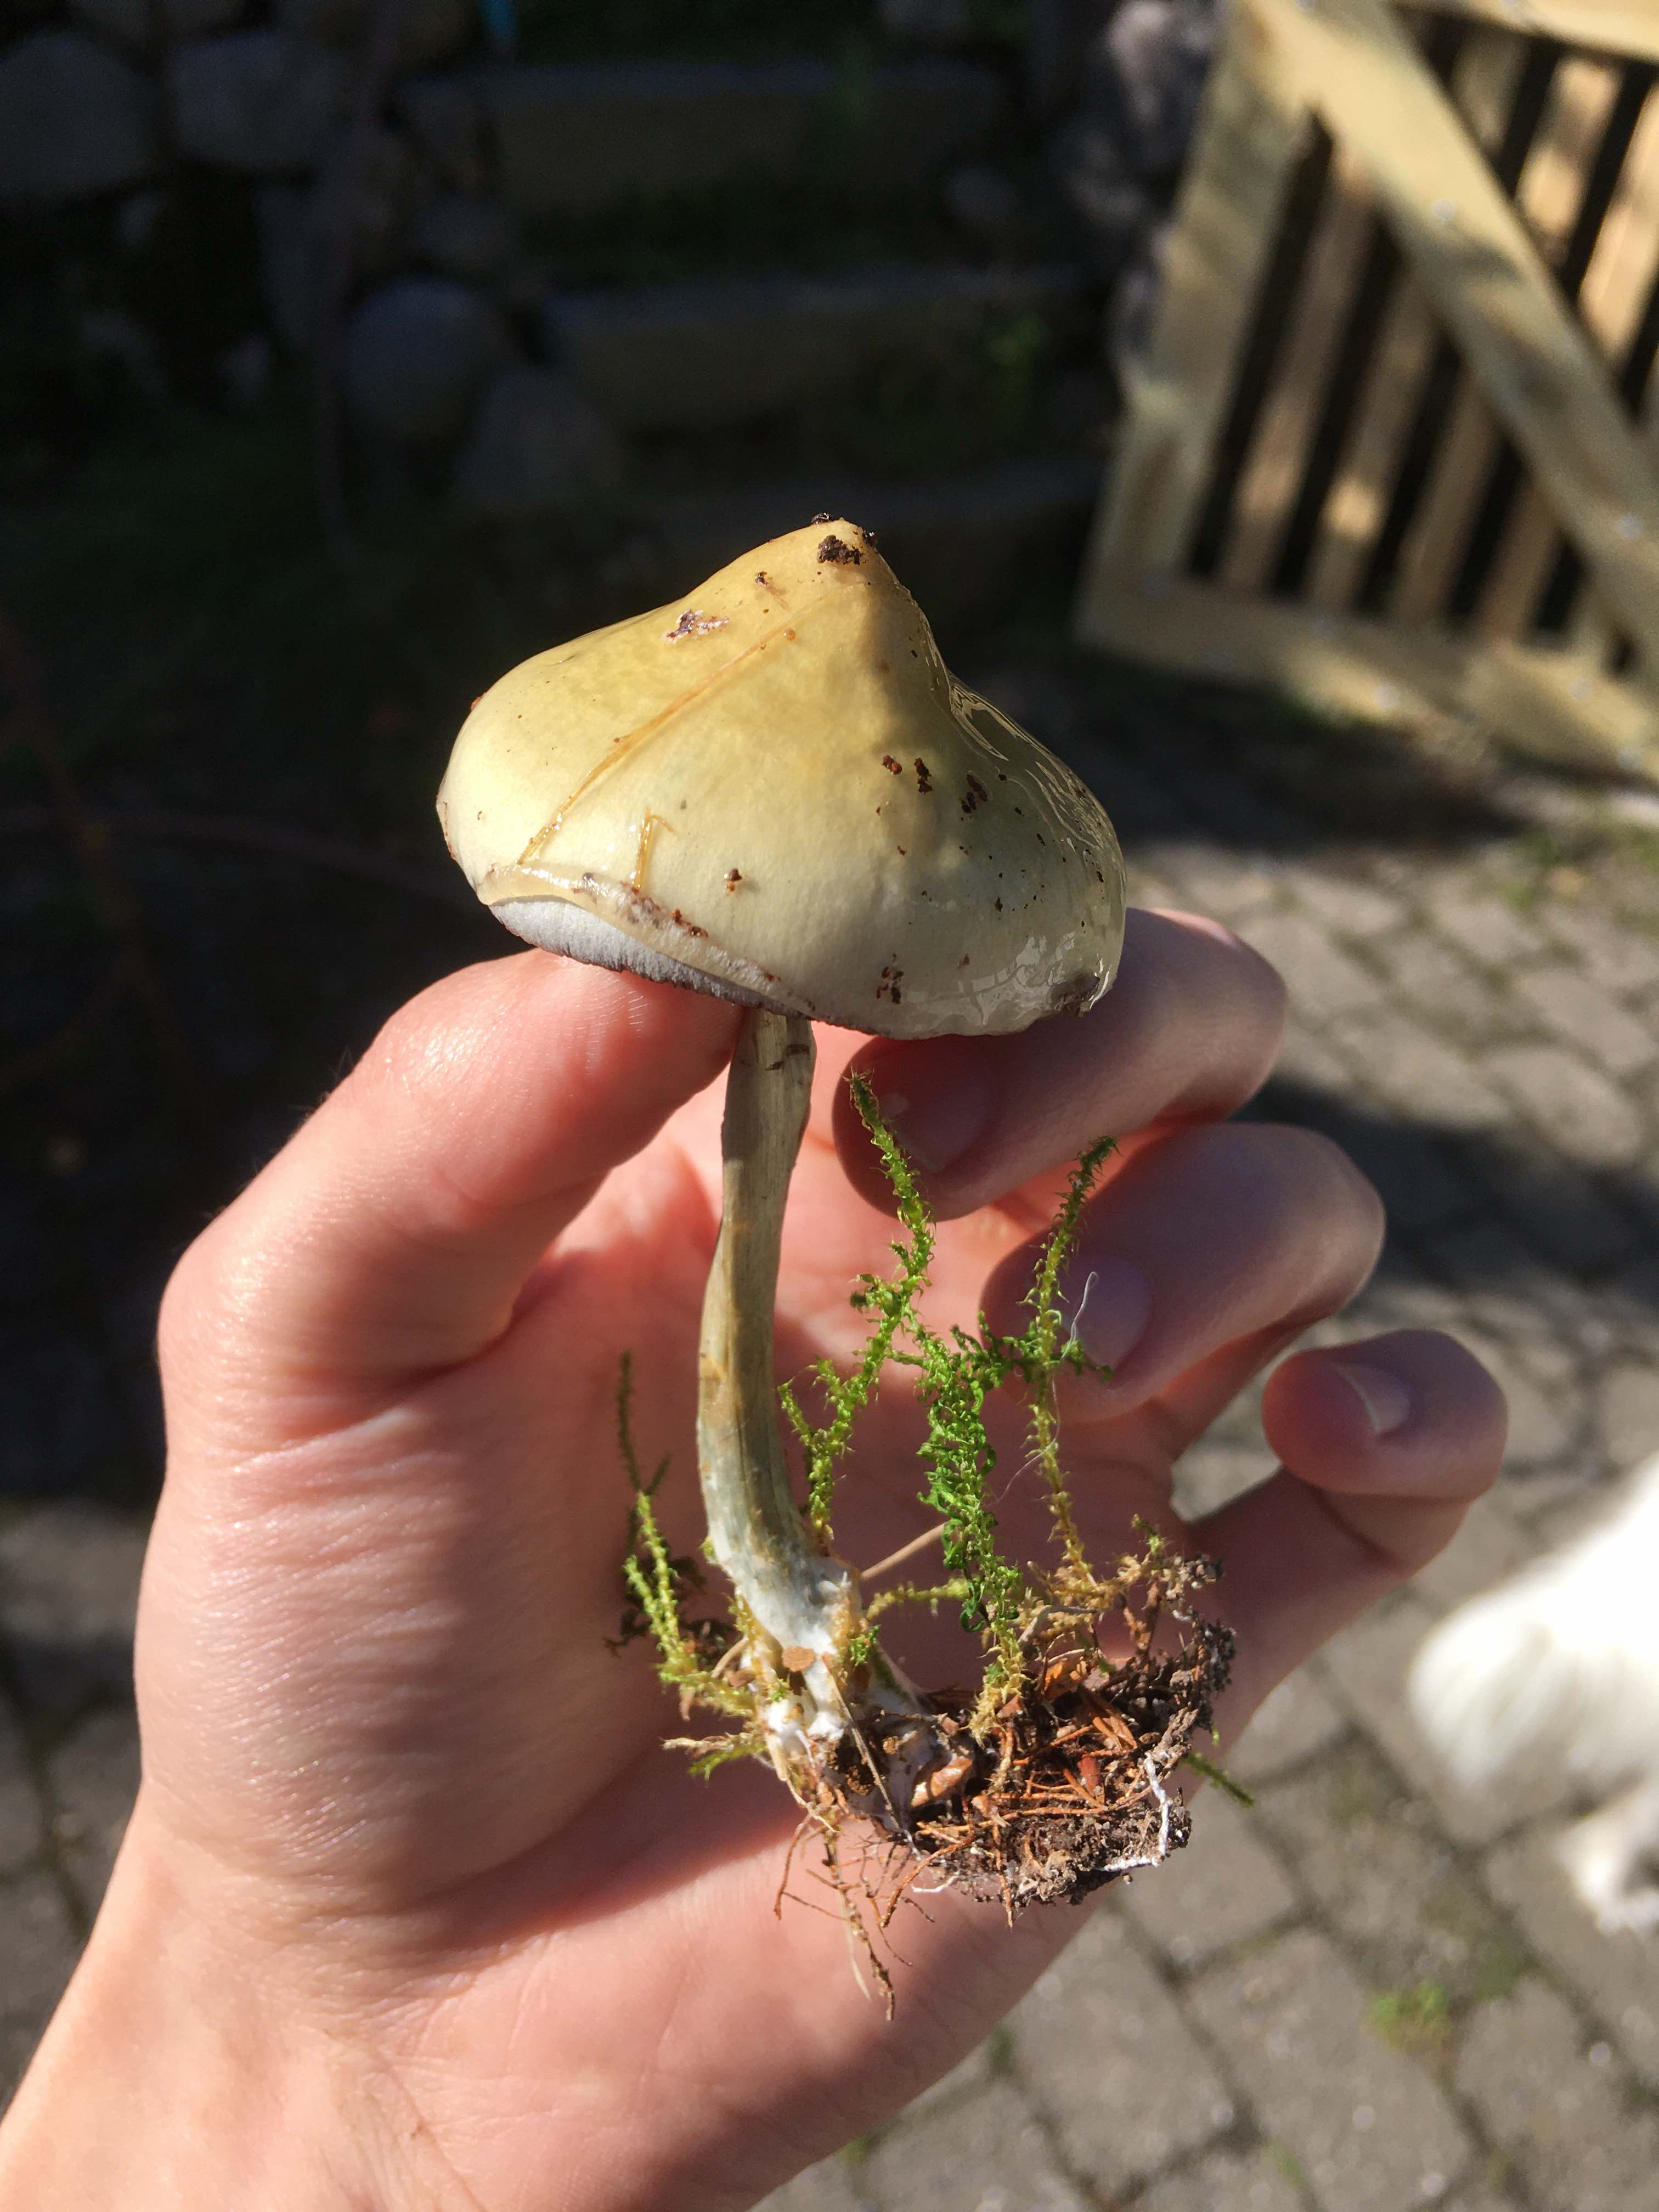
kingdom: Fungi
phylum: Basidiomycota
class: Agaricomycetes
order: Agaricales
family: Strophariaceae
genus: Stropharia
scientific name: Stropharia cyanea
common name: blågrøn bredblad
